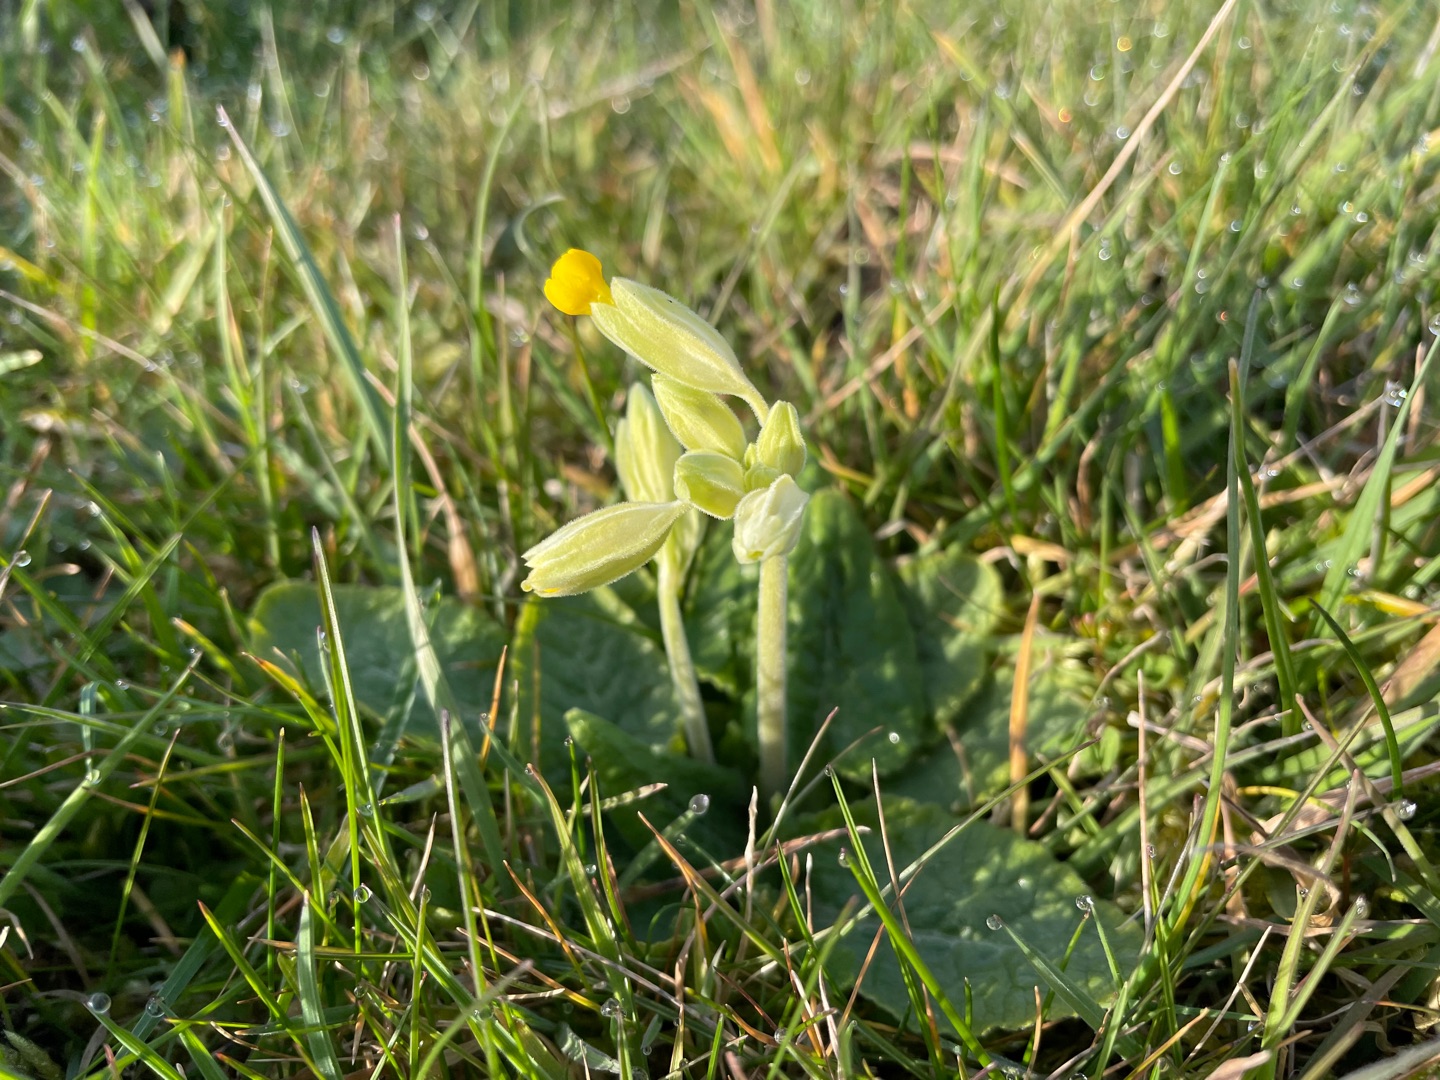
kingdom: Plantae
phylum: Tracheophyta
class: Magnoliopsida
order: Ericales
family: Primulaceae
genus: Primula
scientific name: Primula veris
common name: Hulkravet kodriver
